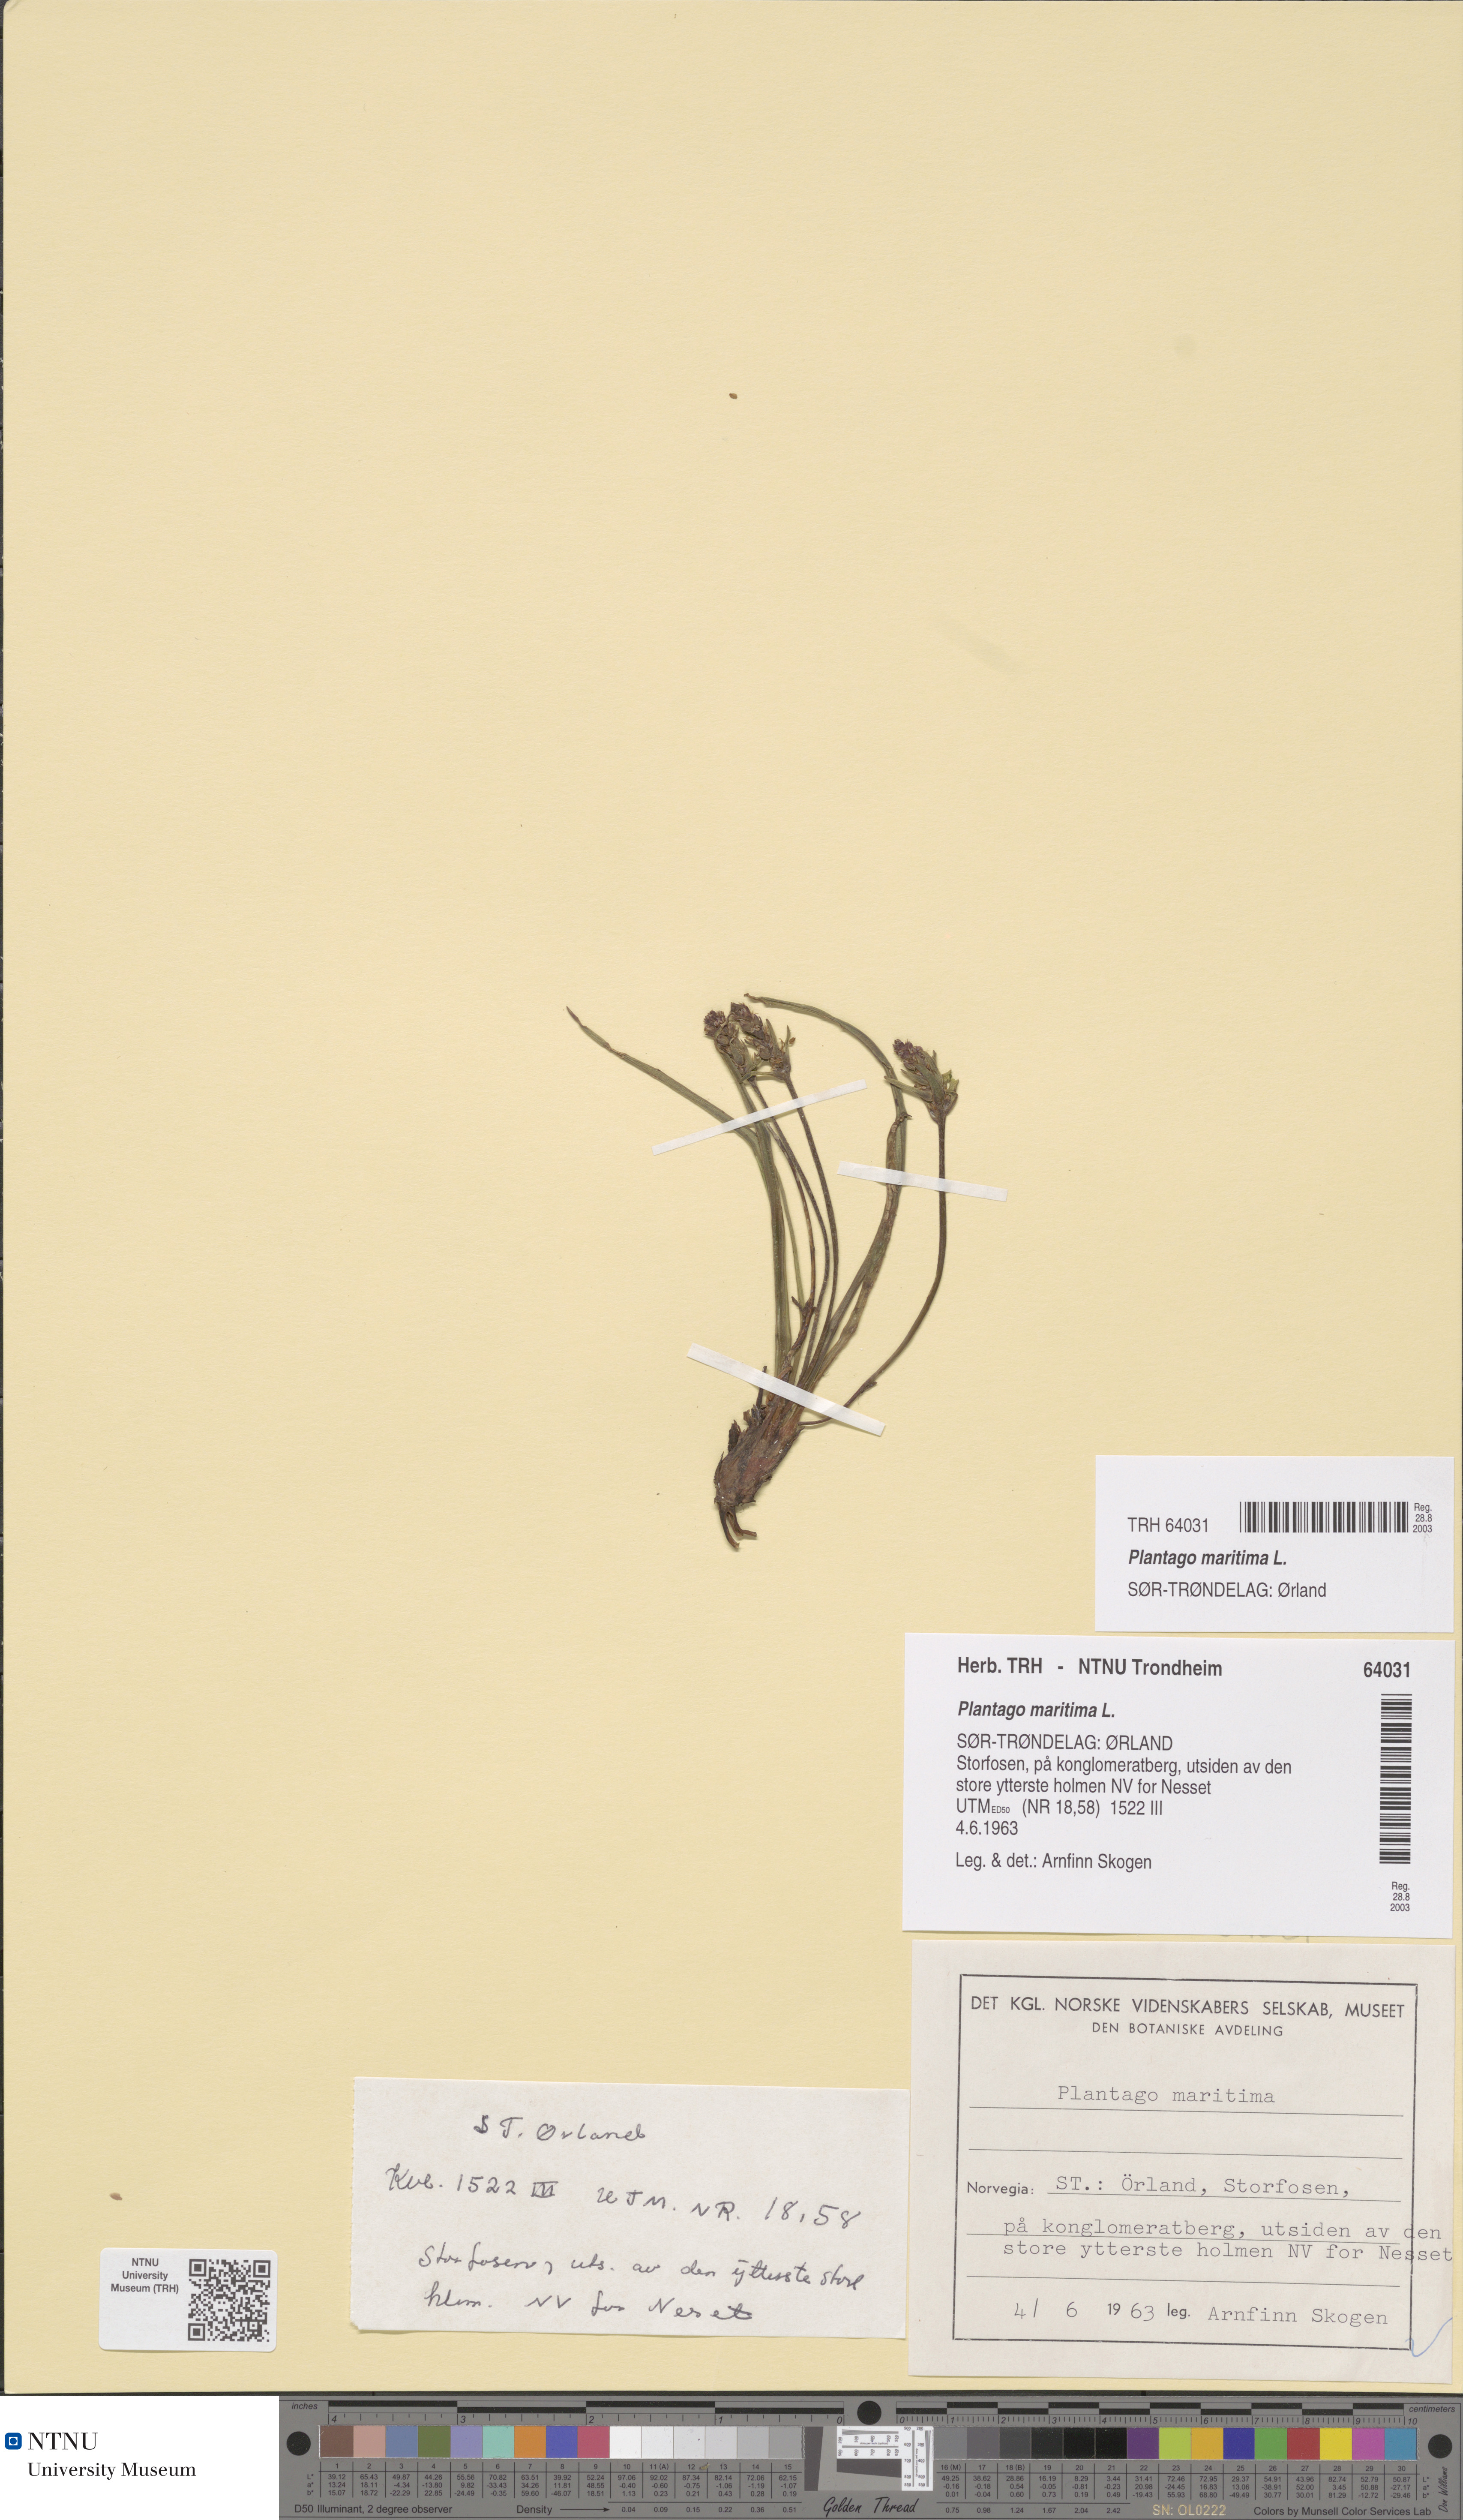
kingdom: Plantae
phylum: Tracheophyta
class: Magnoliopsida
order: Lamiales
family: Plantaginaceae
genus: Plantago
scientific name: Plantago maritima
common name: Sea plantain
